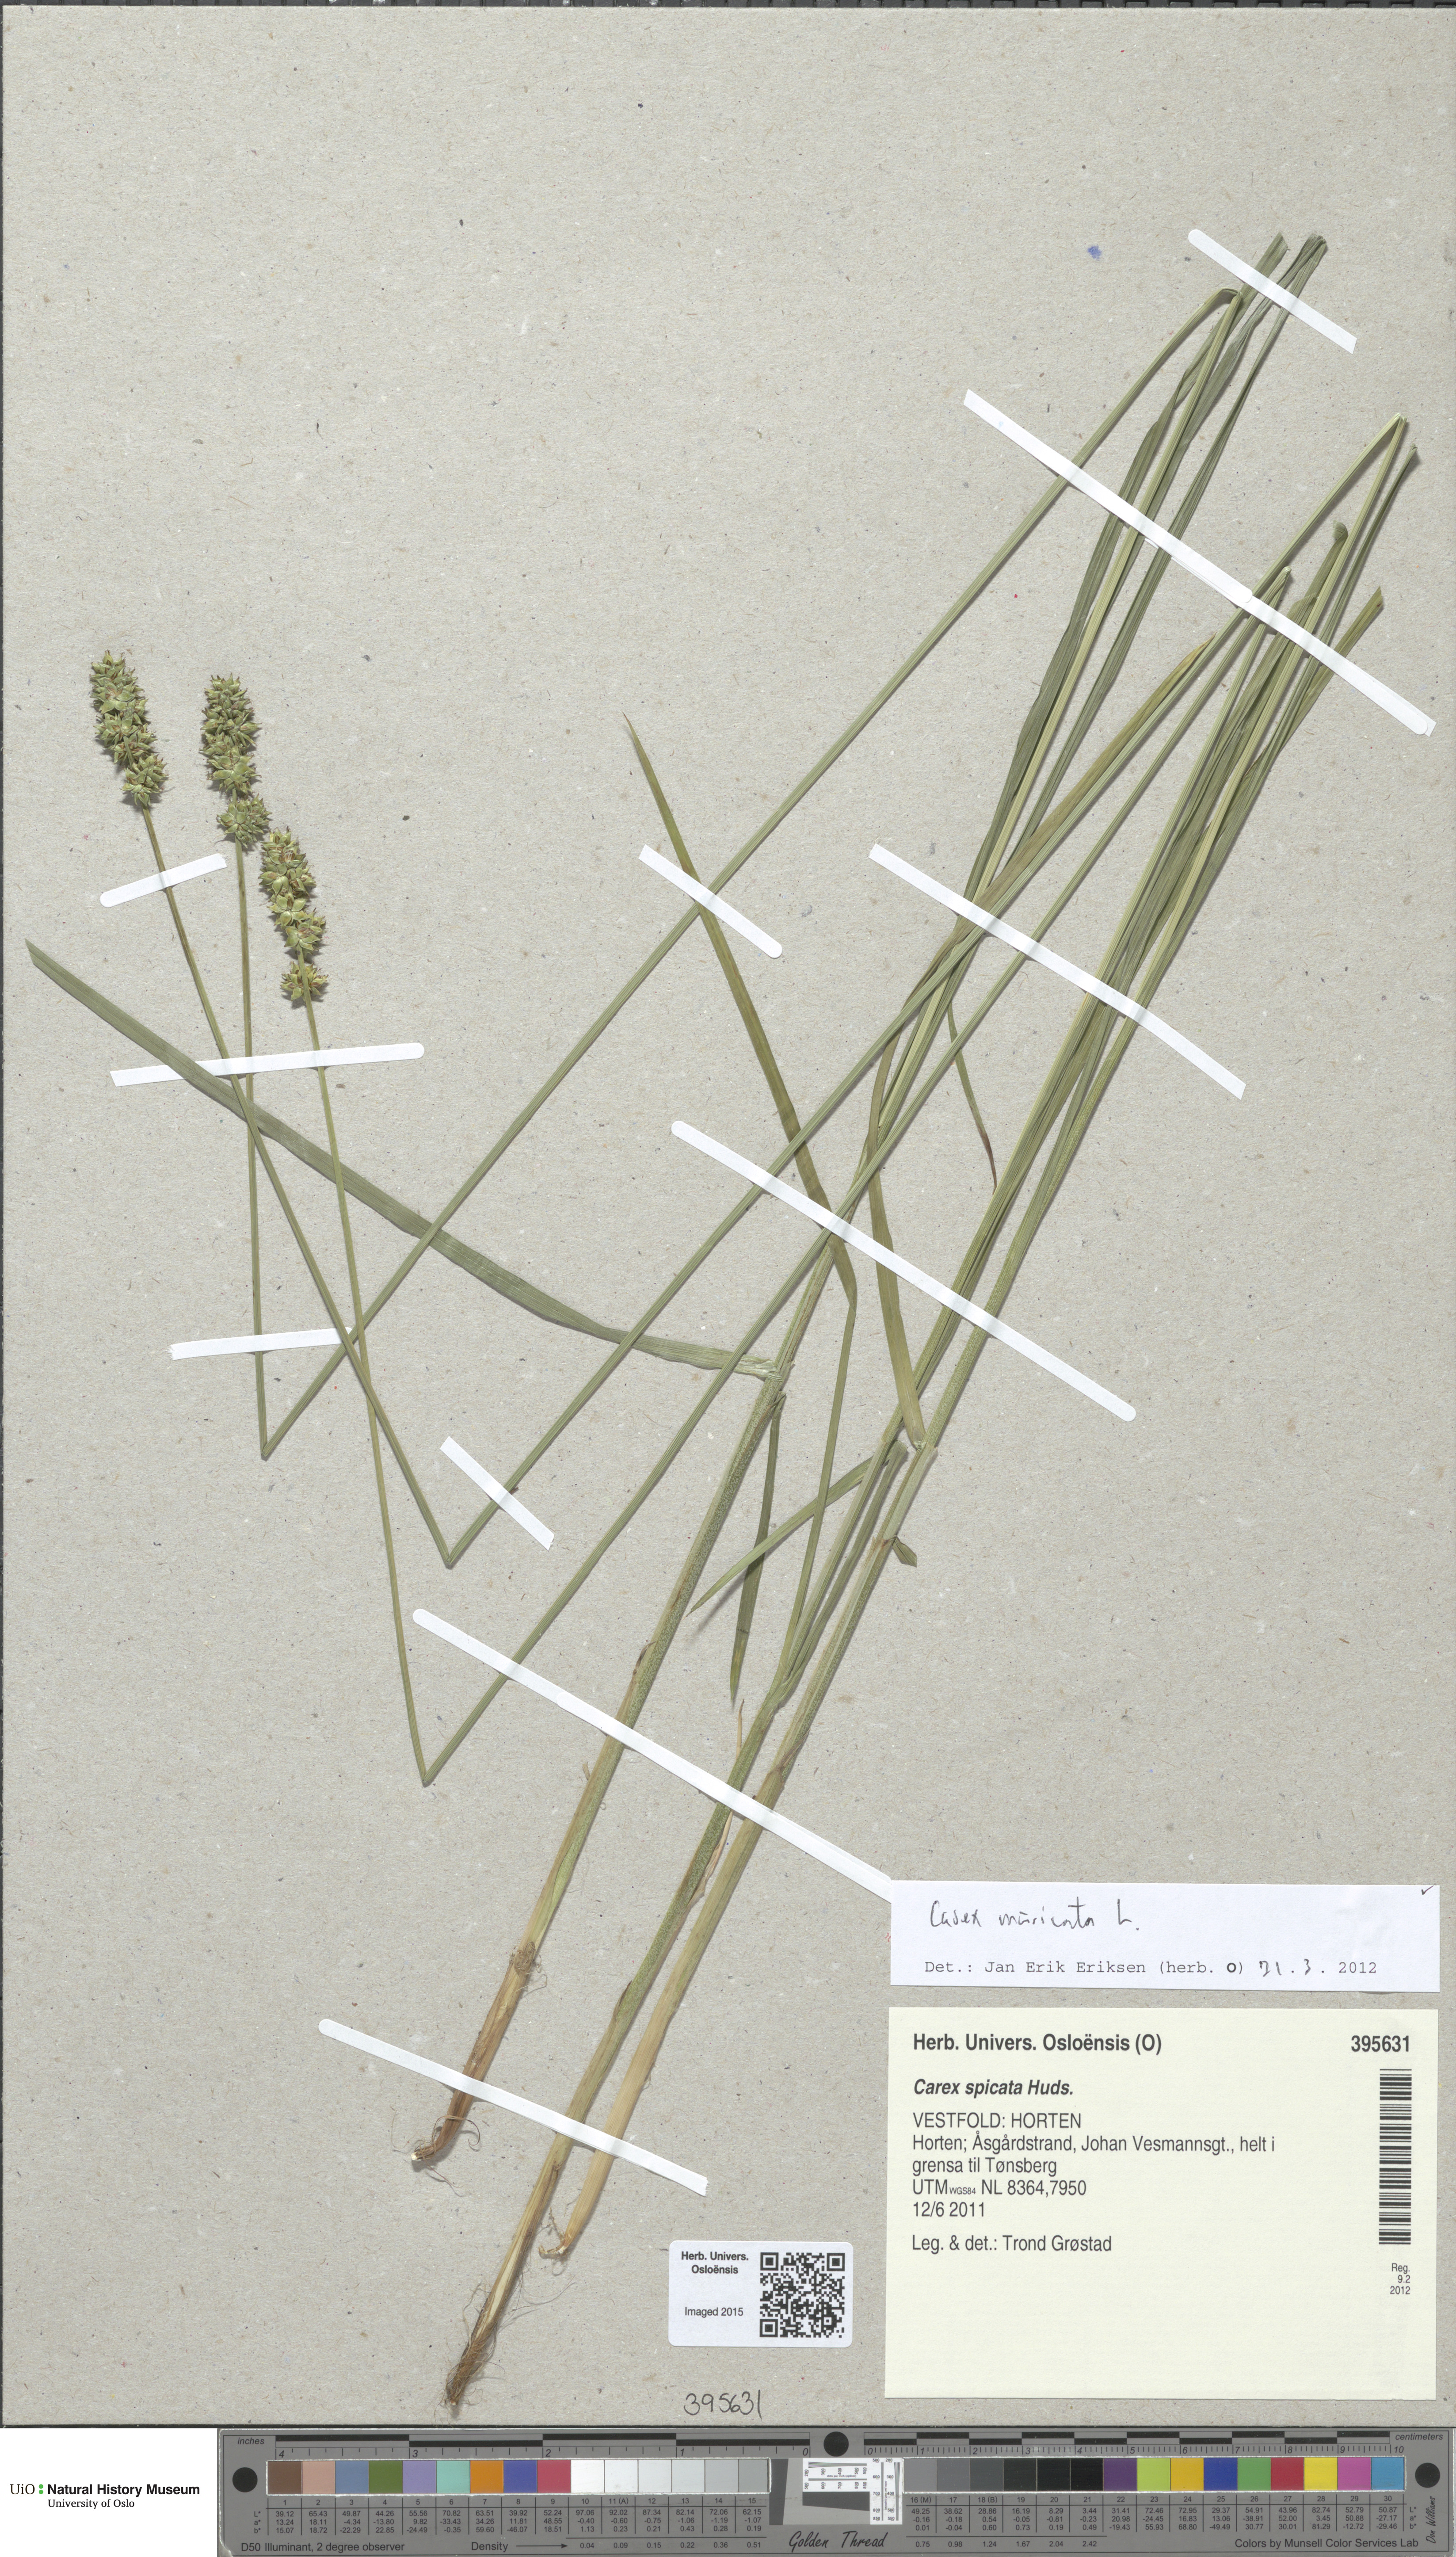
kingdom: Plantae
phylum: Tracheophyta
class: Liliopsida
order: Poales
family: Cyperaceae
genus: Carex
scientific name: Carex muricata
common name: Rough sedge
